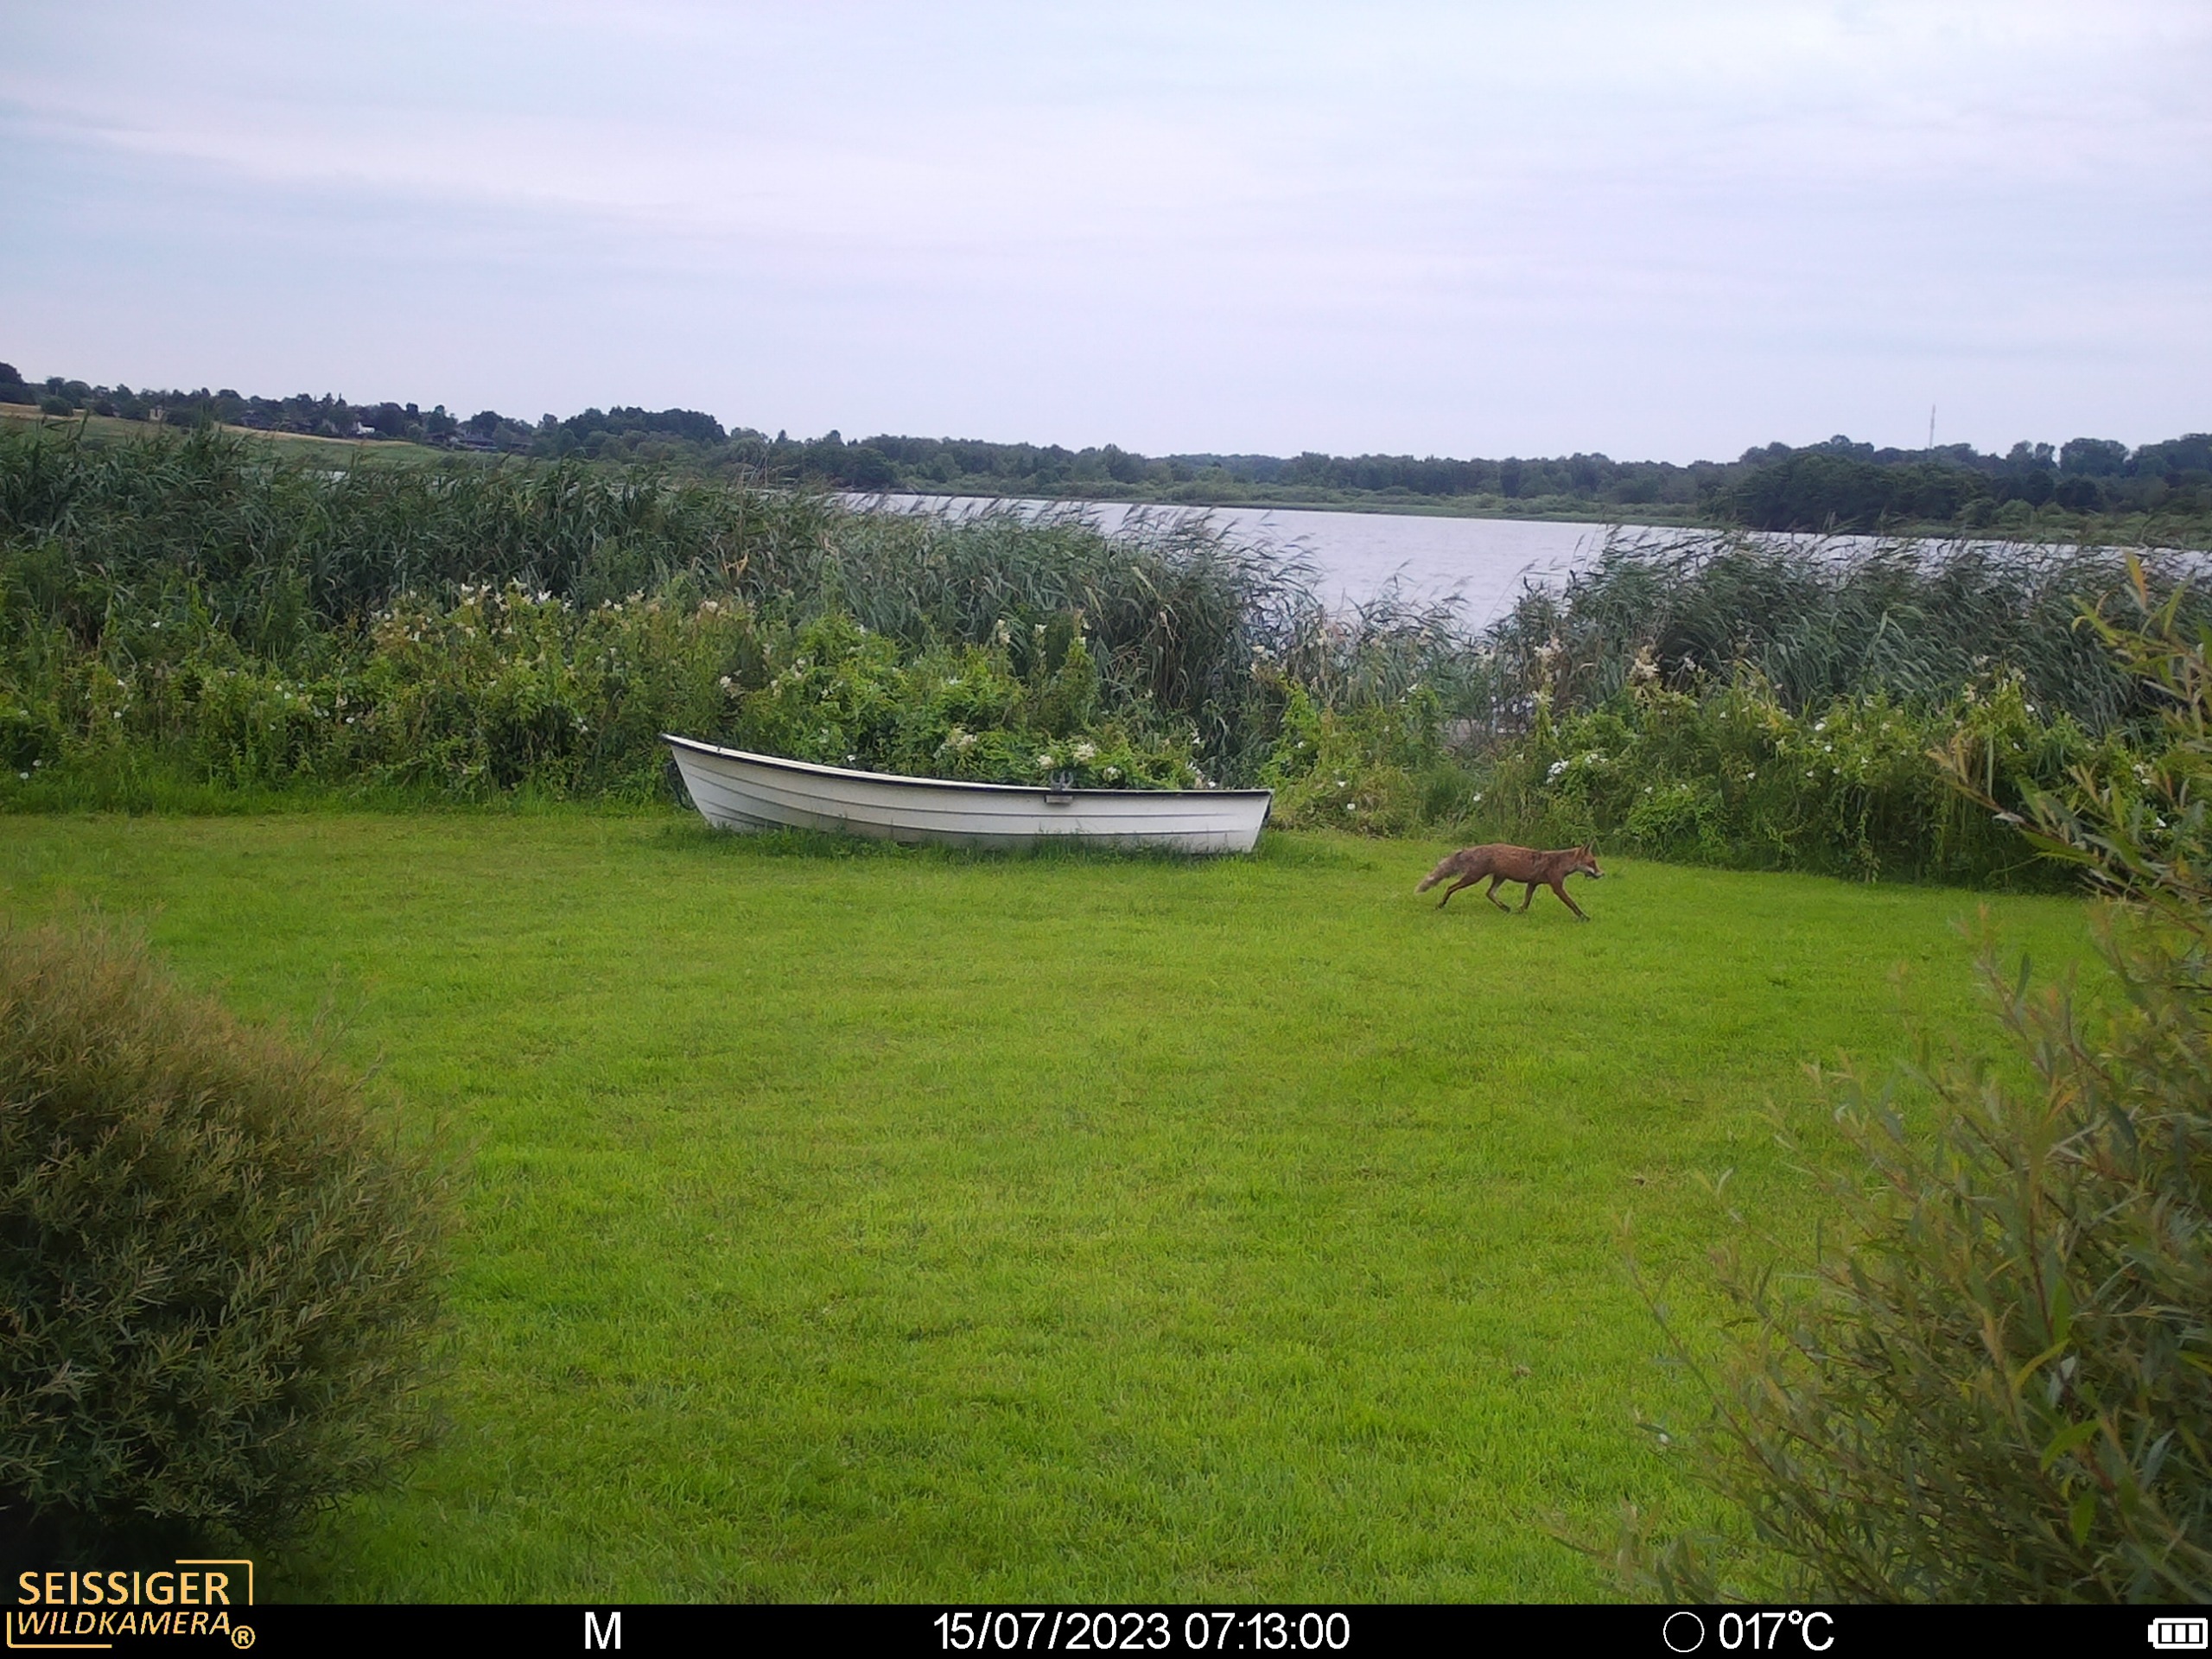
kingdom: Animalia
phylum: Chordata
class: Mammalia
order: Carnivora
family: Canidae
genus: Vulpes
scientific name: Vulpes vulpes
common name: Ræv
